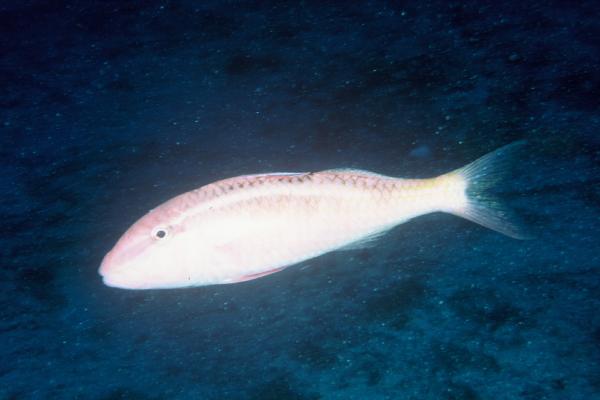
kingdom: Animalia
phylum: Chordata
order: Perciformes
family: Mullidae
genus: Parupeneus
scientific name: Parupeneus chrysonemus
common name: Gold-thread goatfish
